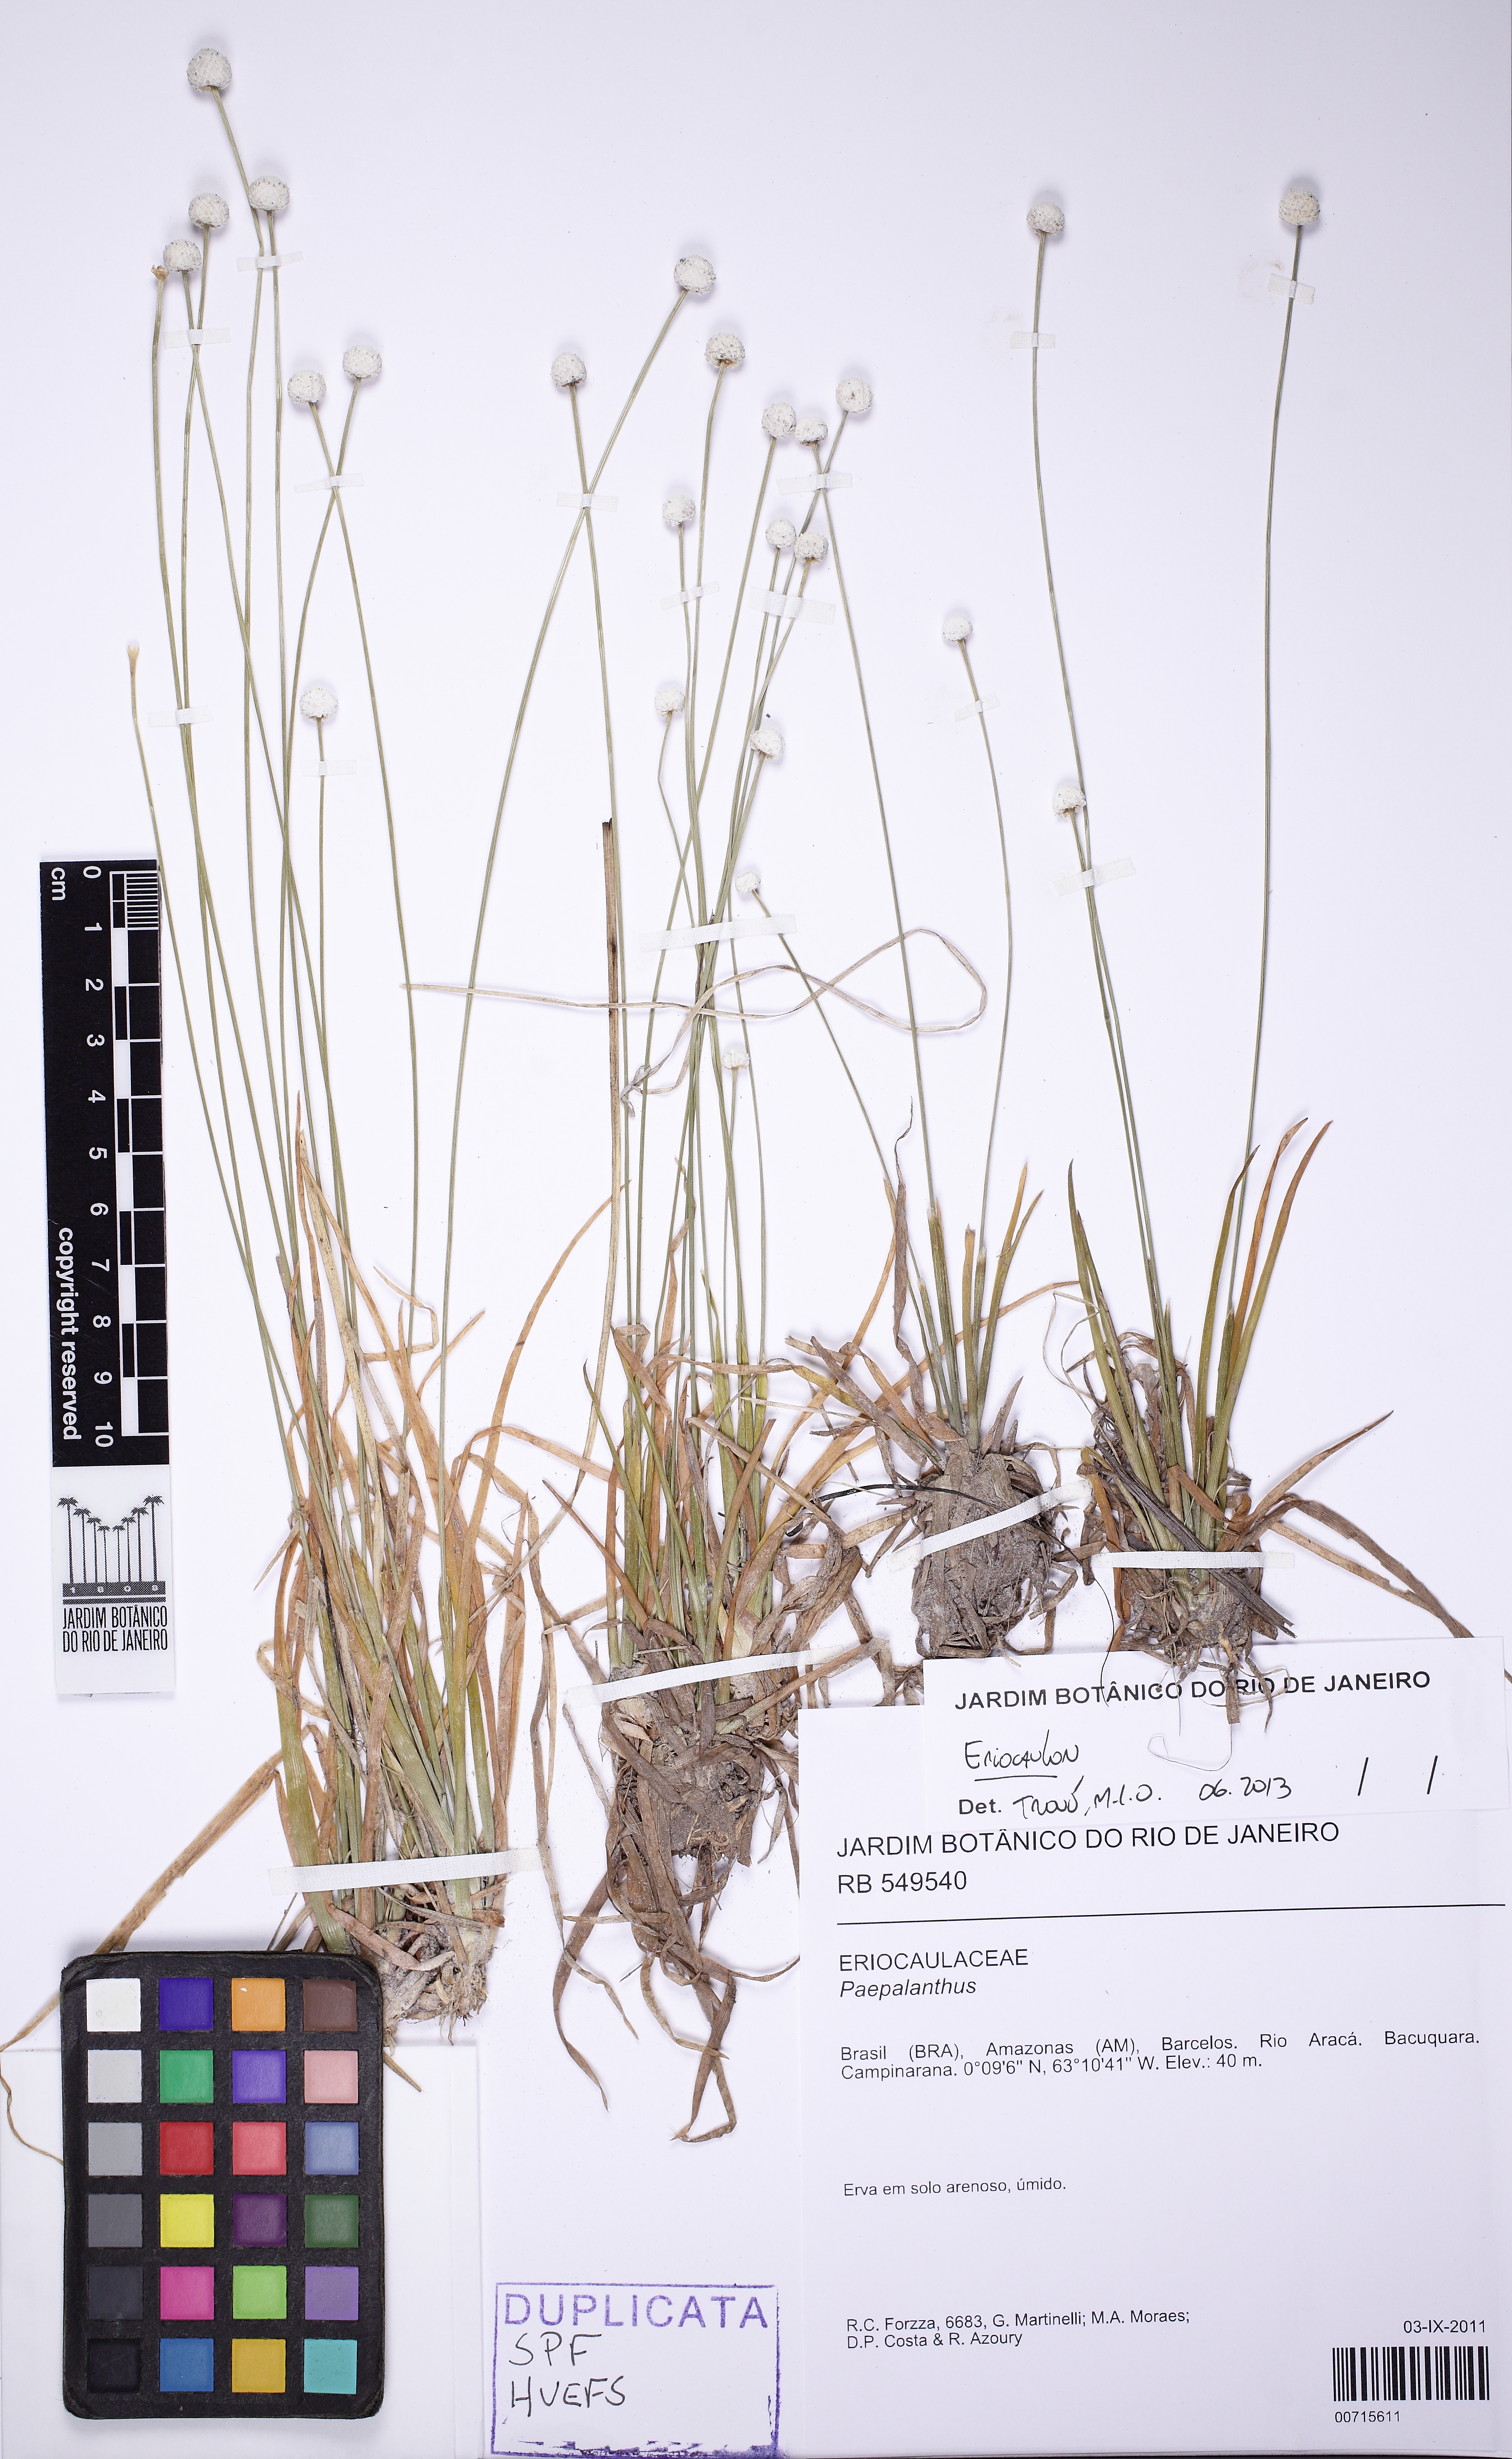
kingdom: Plantae
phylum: Tracheophyta
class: Liliopsida
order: Poales
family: Eriocaulaceae
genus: Eriocaulon
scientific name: Eriocaulon
